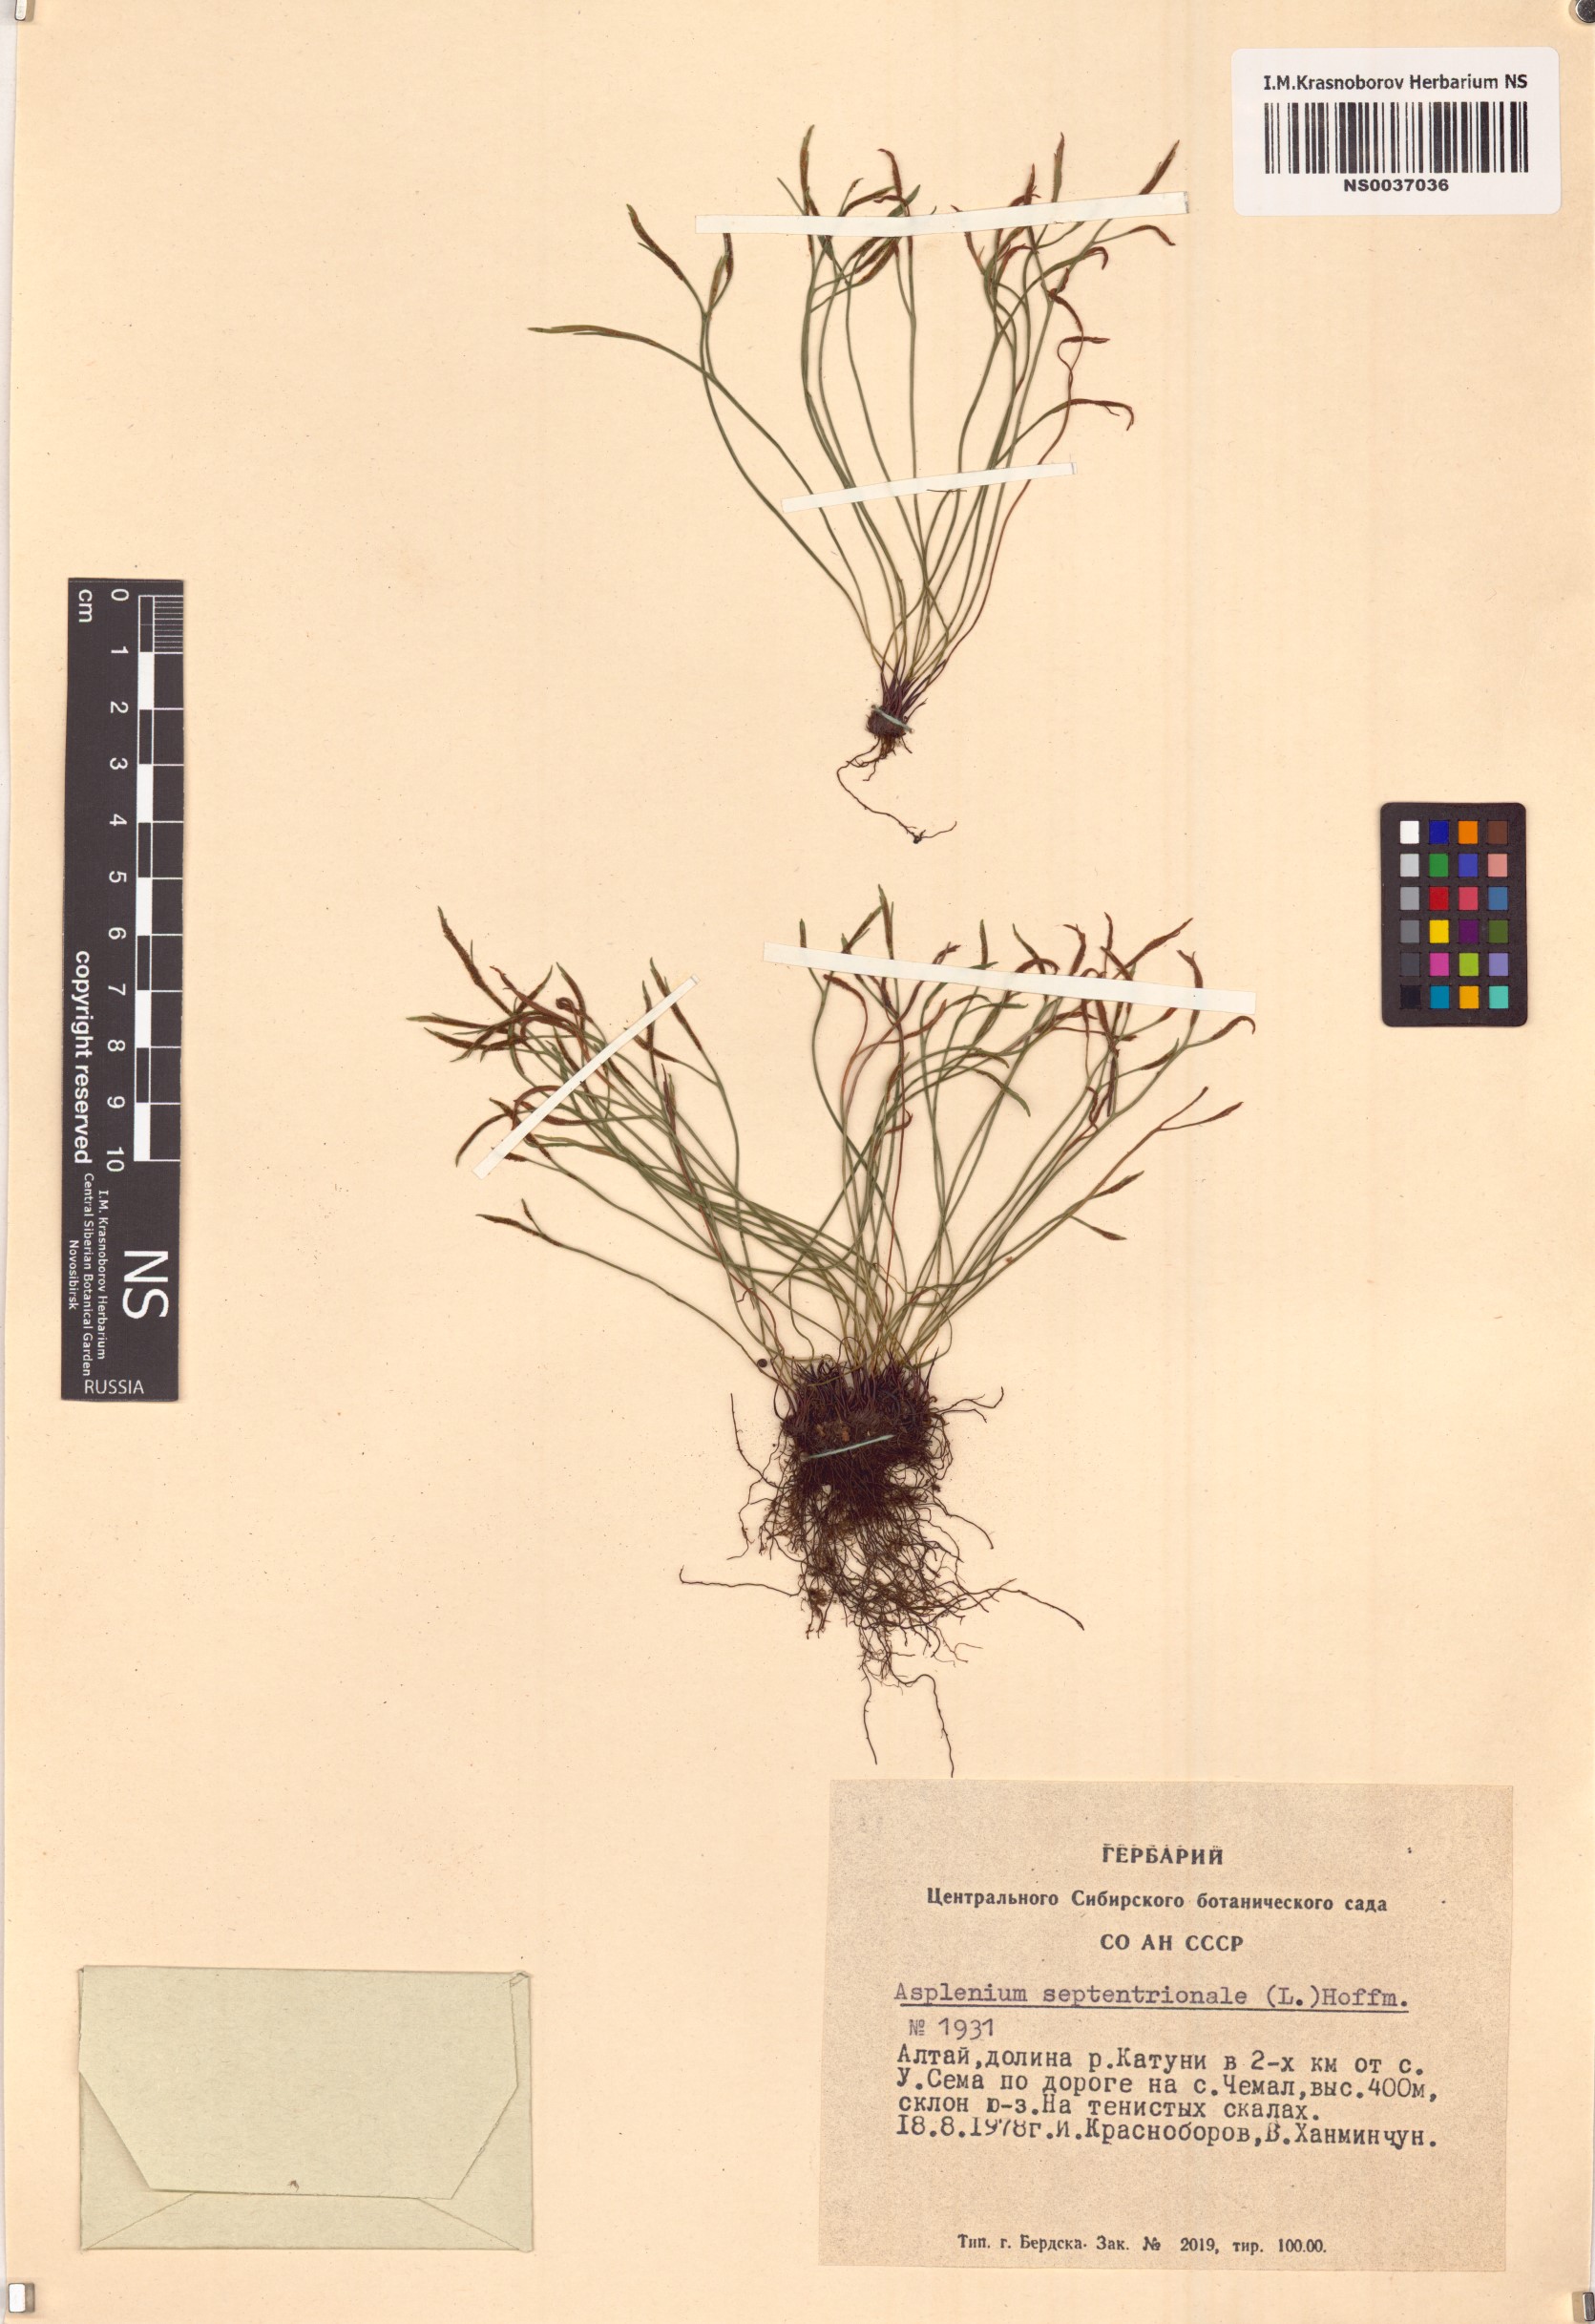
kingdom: Plantae
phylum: Tracheophyta
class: Polypodiopsida
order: Polypodiales
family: Aspleniaceae
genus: Asplenium
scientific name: Asplenium septentrionale
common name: Forked spleenwort
